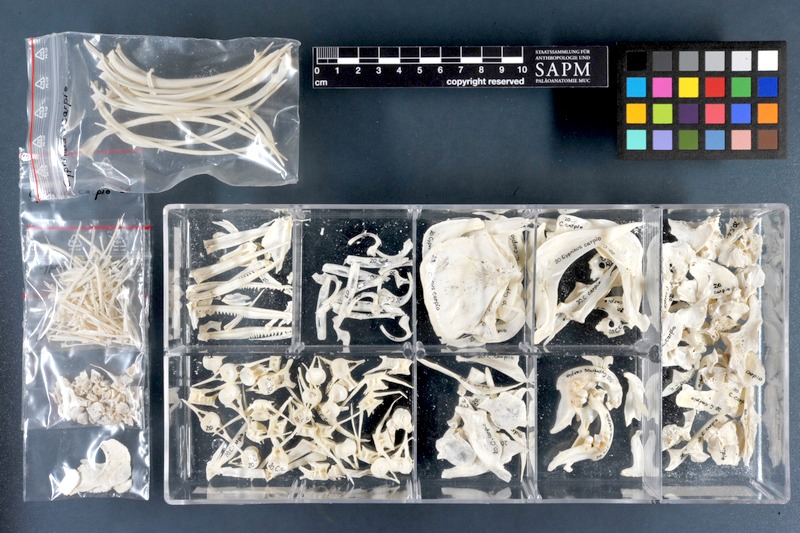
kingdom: Animalia
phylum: Chordata
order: Cypriniformes
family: Cyprinidae
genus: Cyprinus
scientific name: Cyprinus carpio
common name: Common carp
